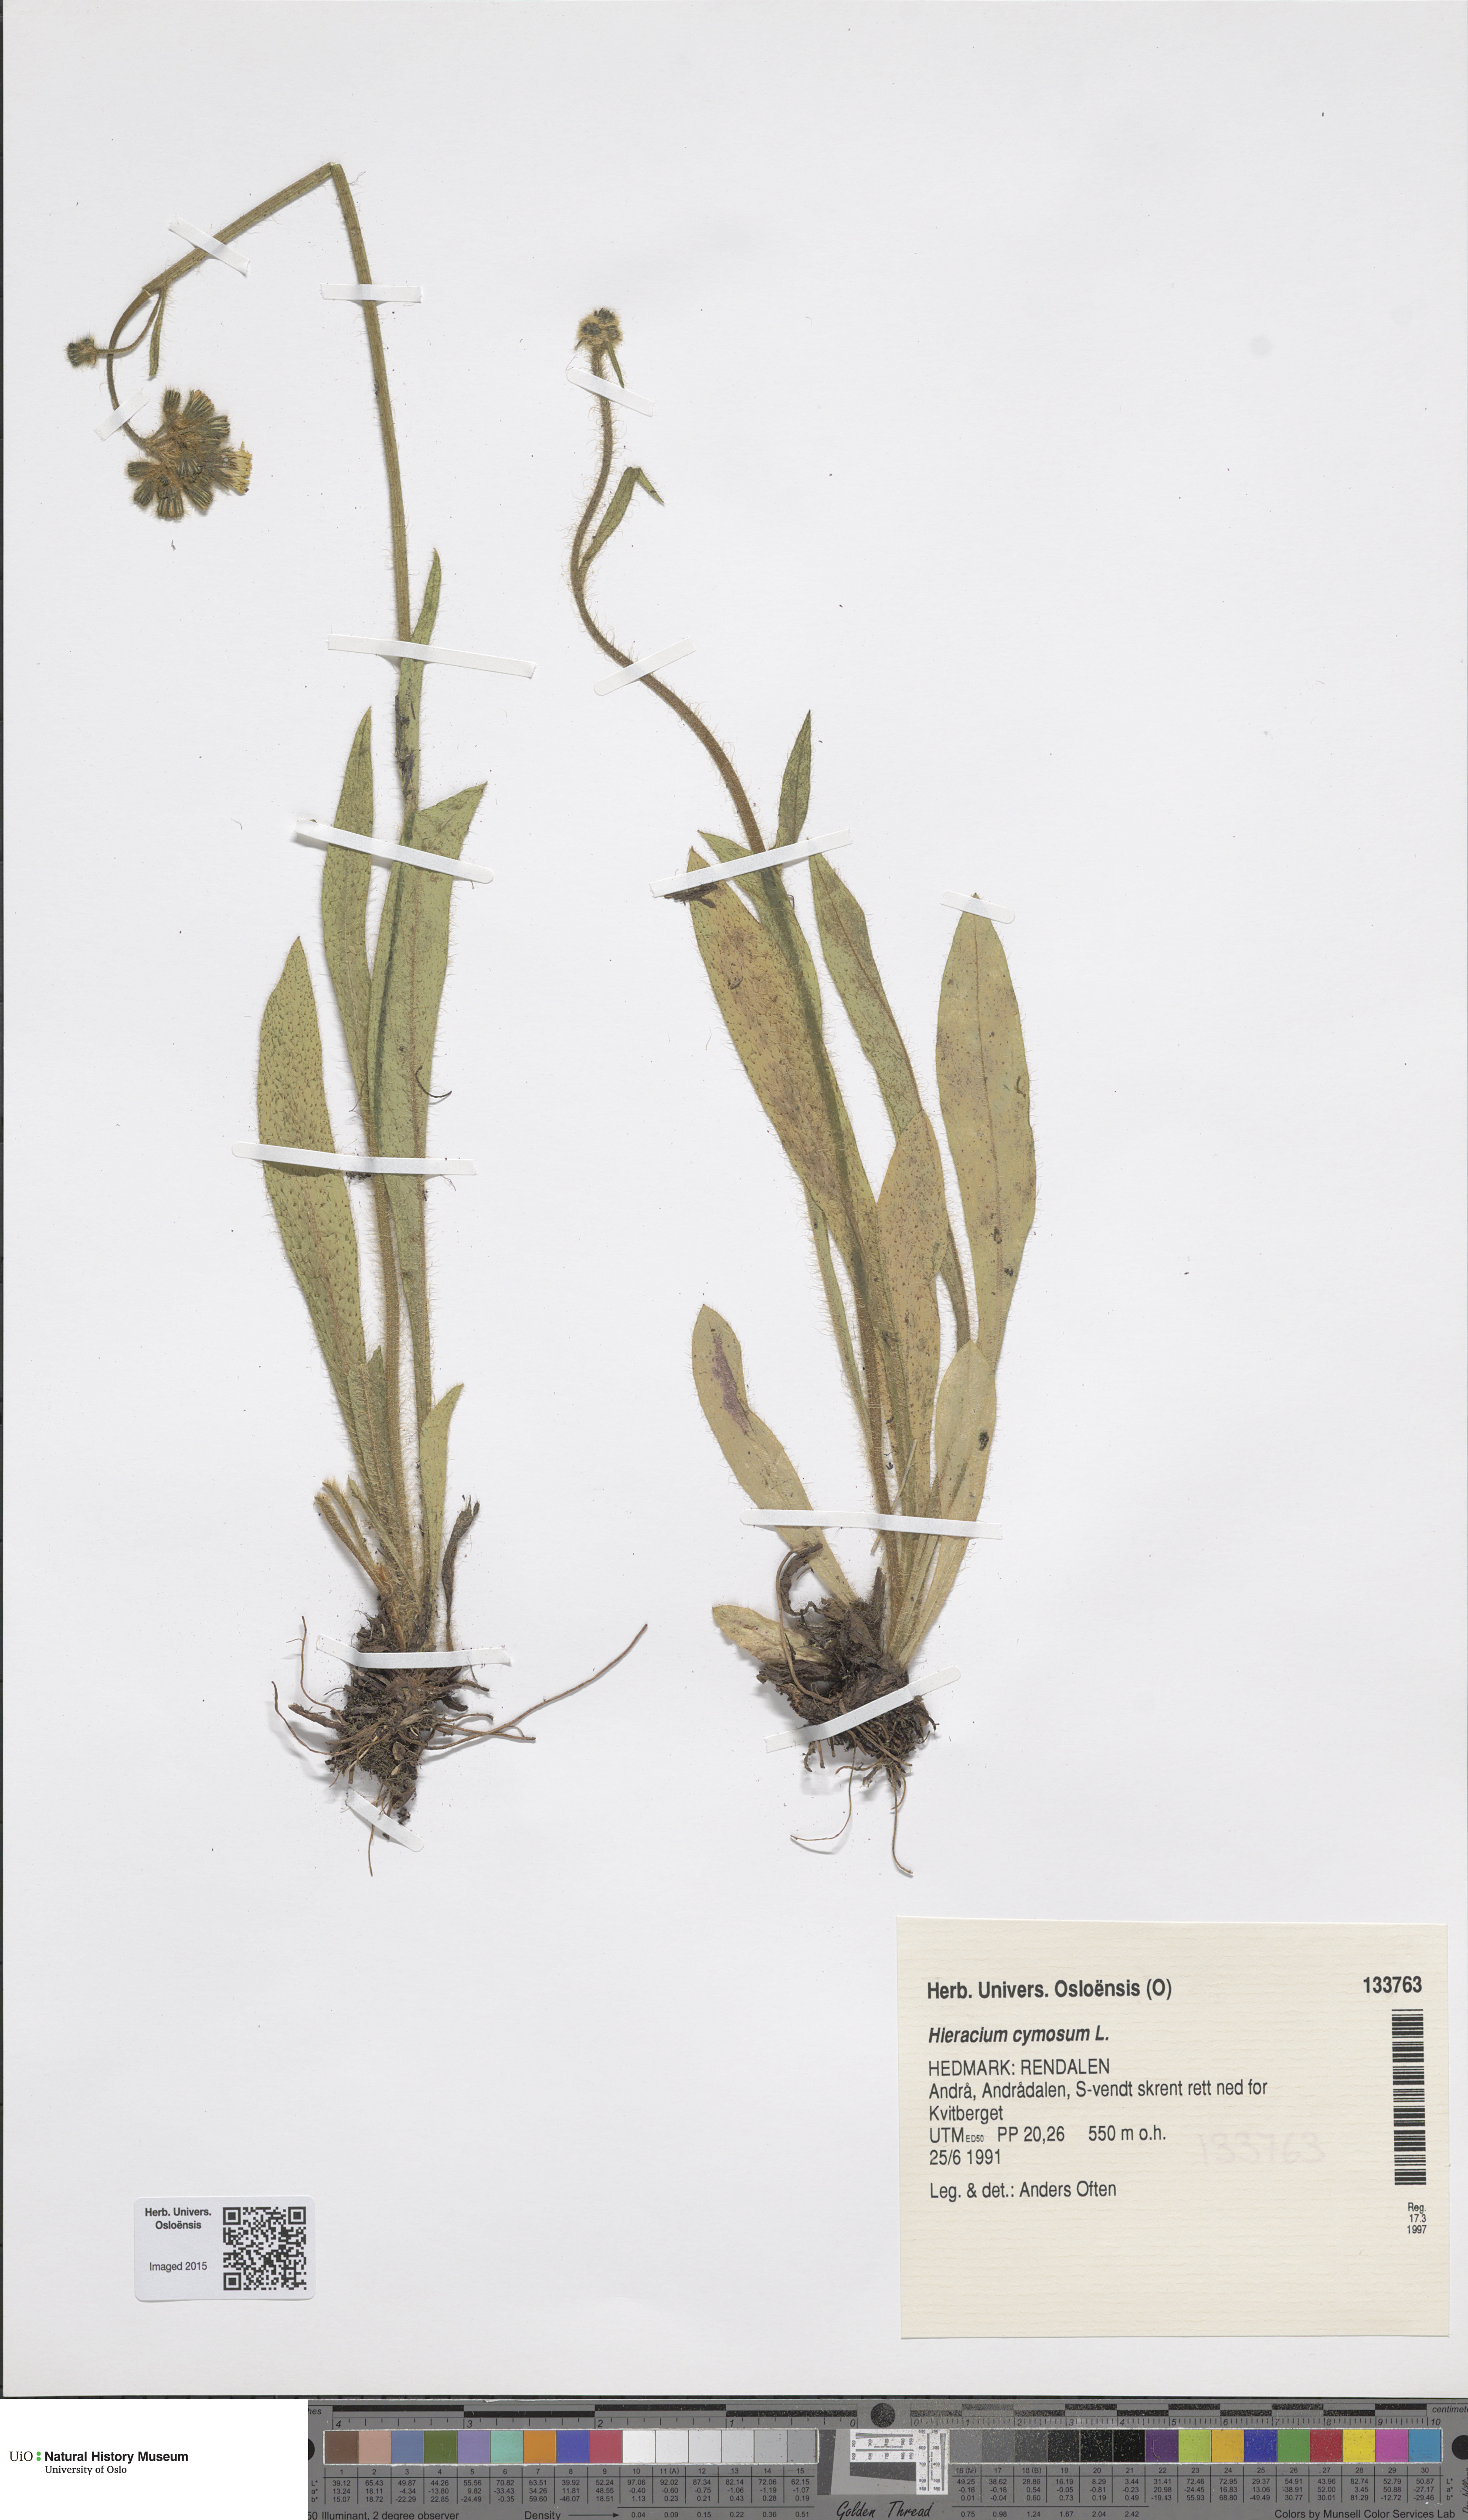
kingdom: Plantae
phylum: Tracheophyta
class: Magnoliopsida
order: Asterales
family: Asteraceae
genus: Pilosella
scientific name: Pilosella cymosa
